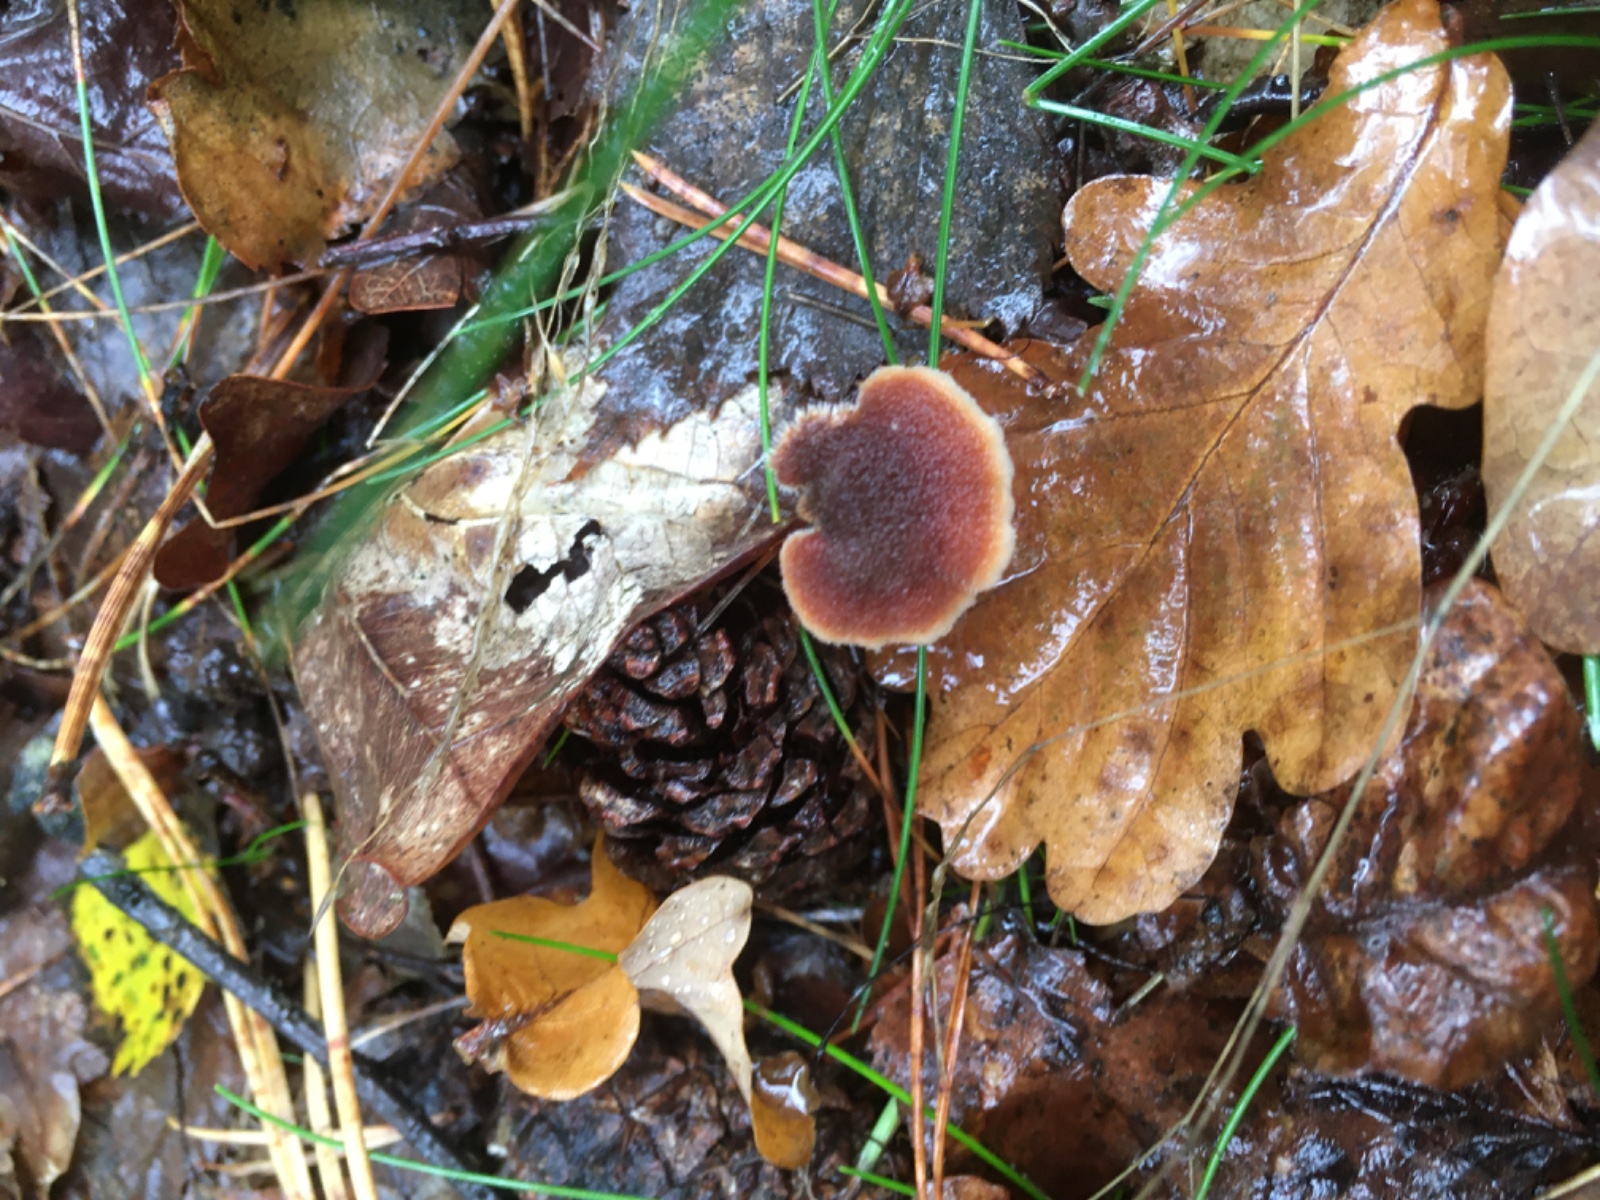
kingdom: Fungi
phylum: Basidiomycota
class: Agaricomycetes
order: Russulales
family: Auriscalpiaceae
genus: Auriscalpium
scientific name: Auriscalpium vulgare
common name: koglepigsvamp
